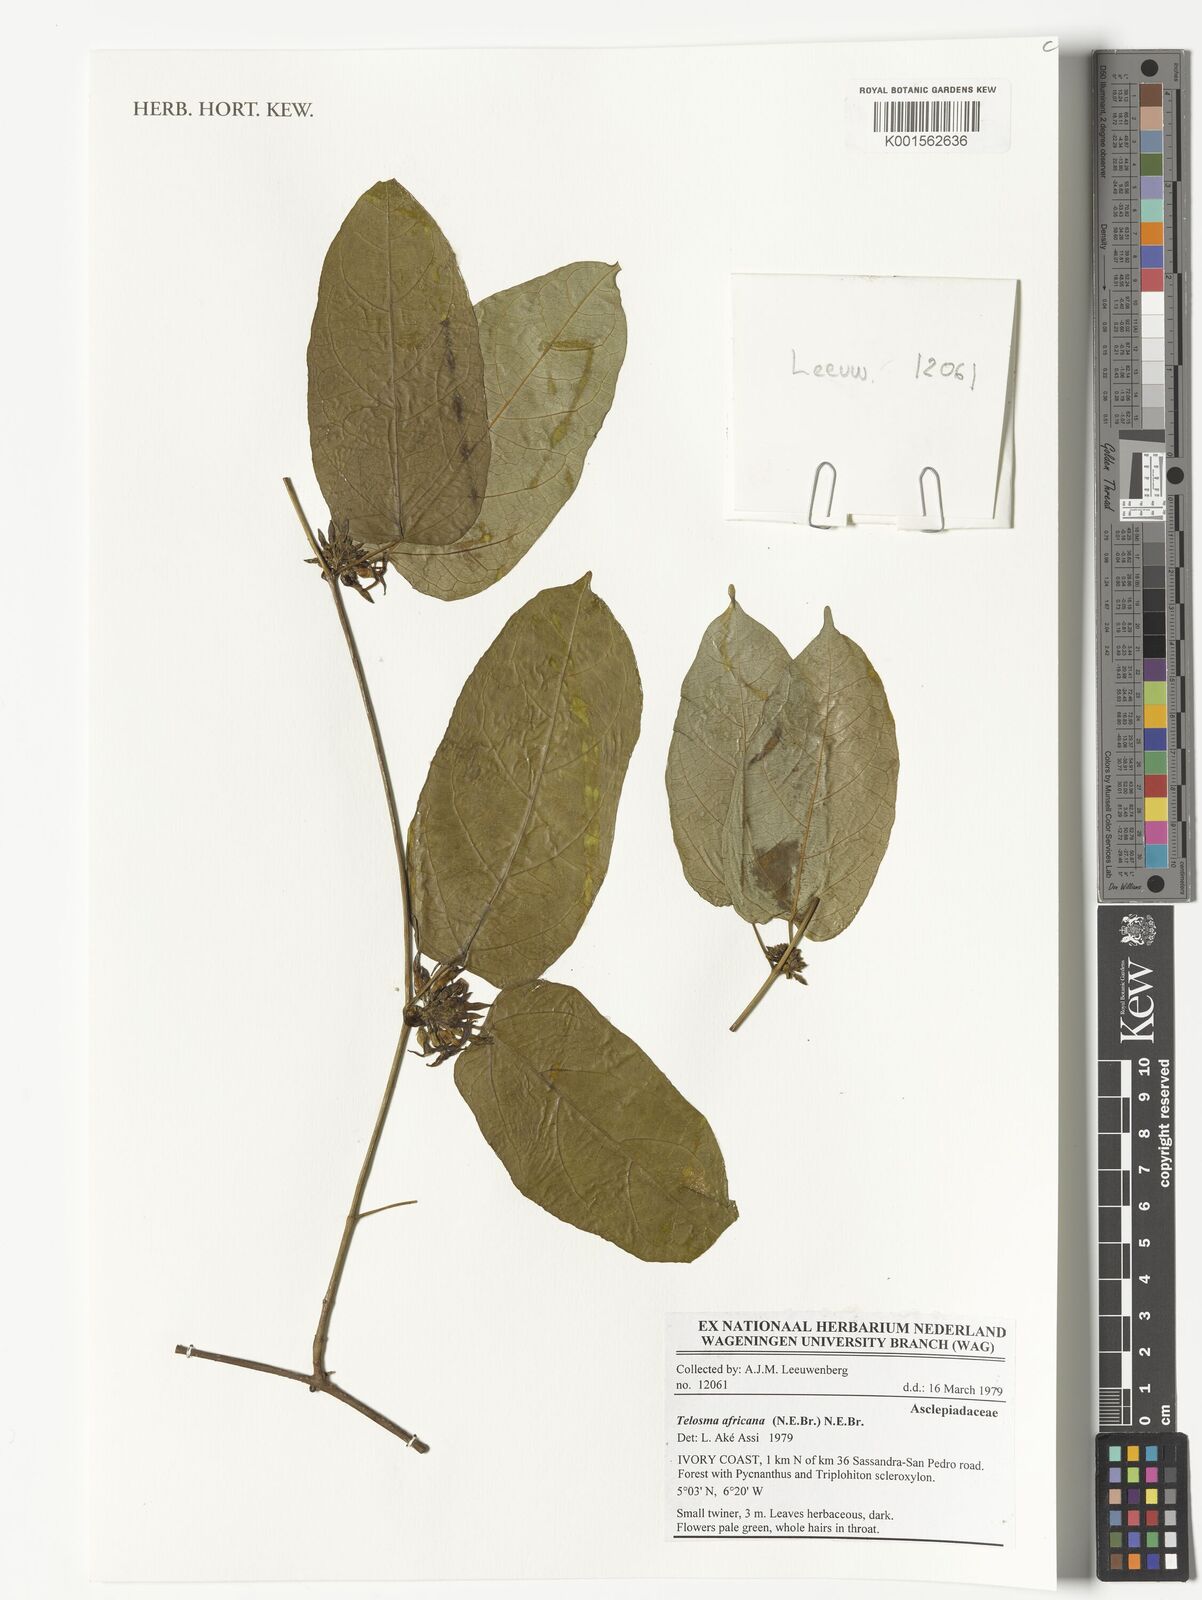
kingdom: Plantae
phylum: Tracheophyta
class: Magnoliopsida
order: Gentianales
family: Apocynaceae
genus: Telosma
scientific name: Telosma africana
